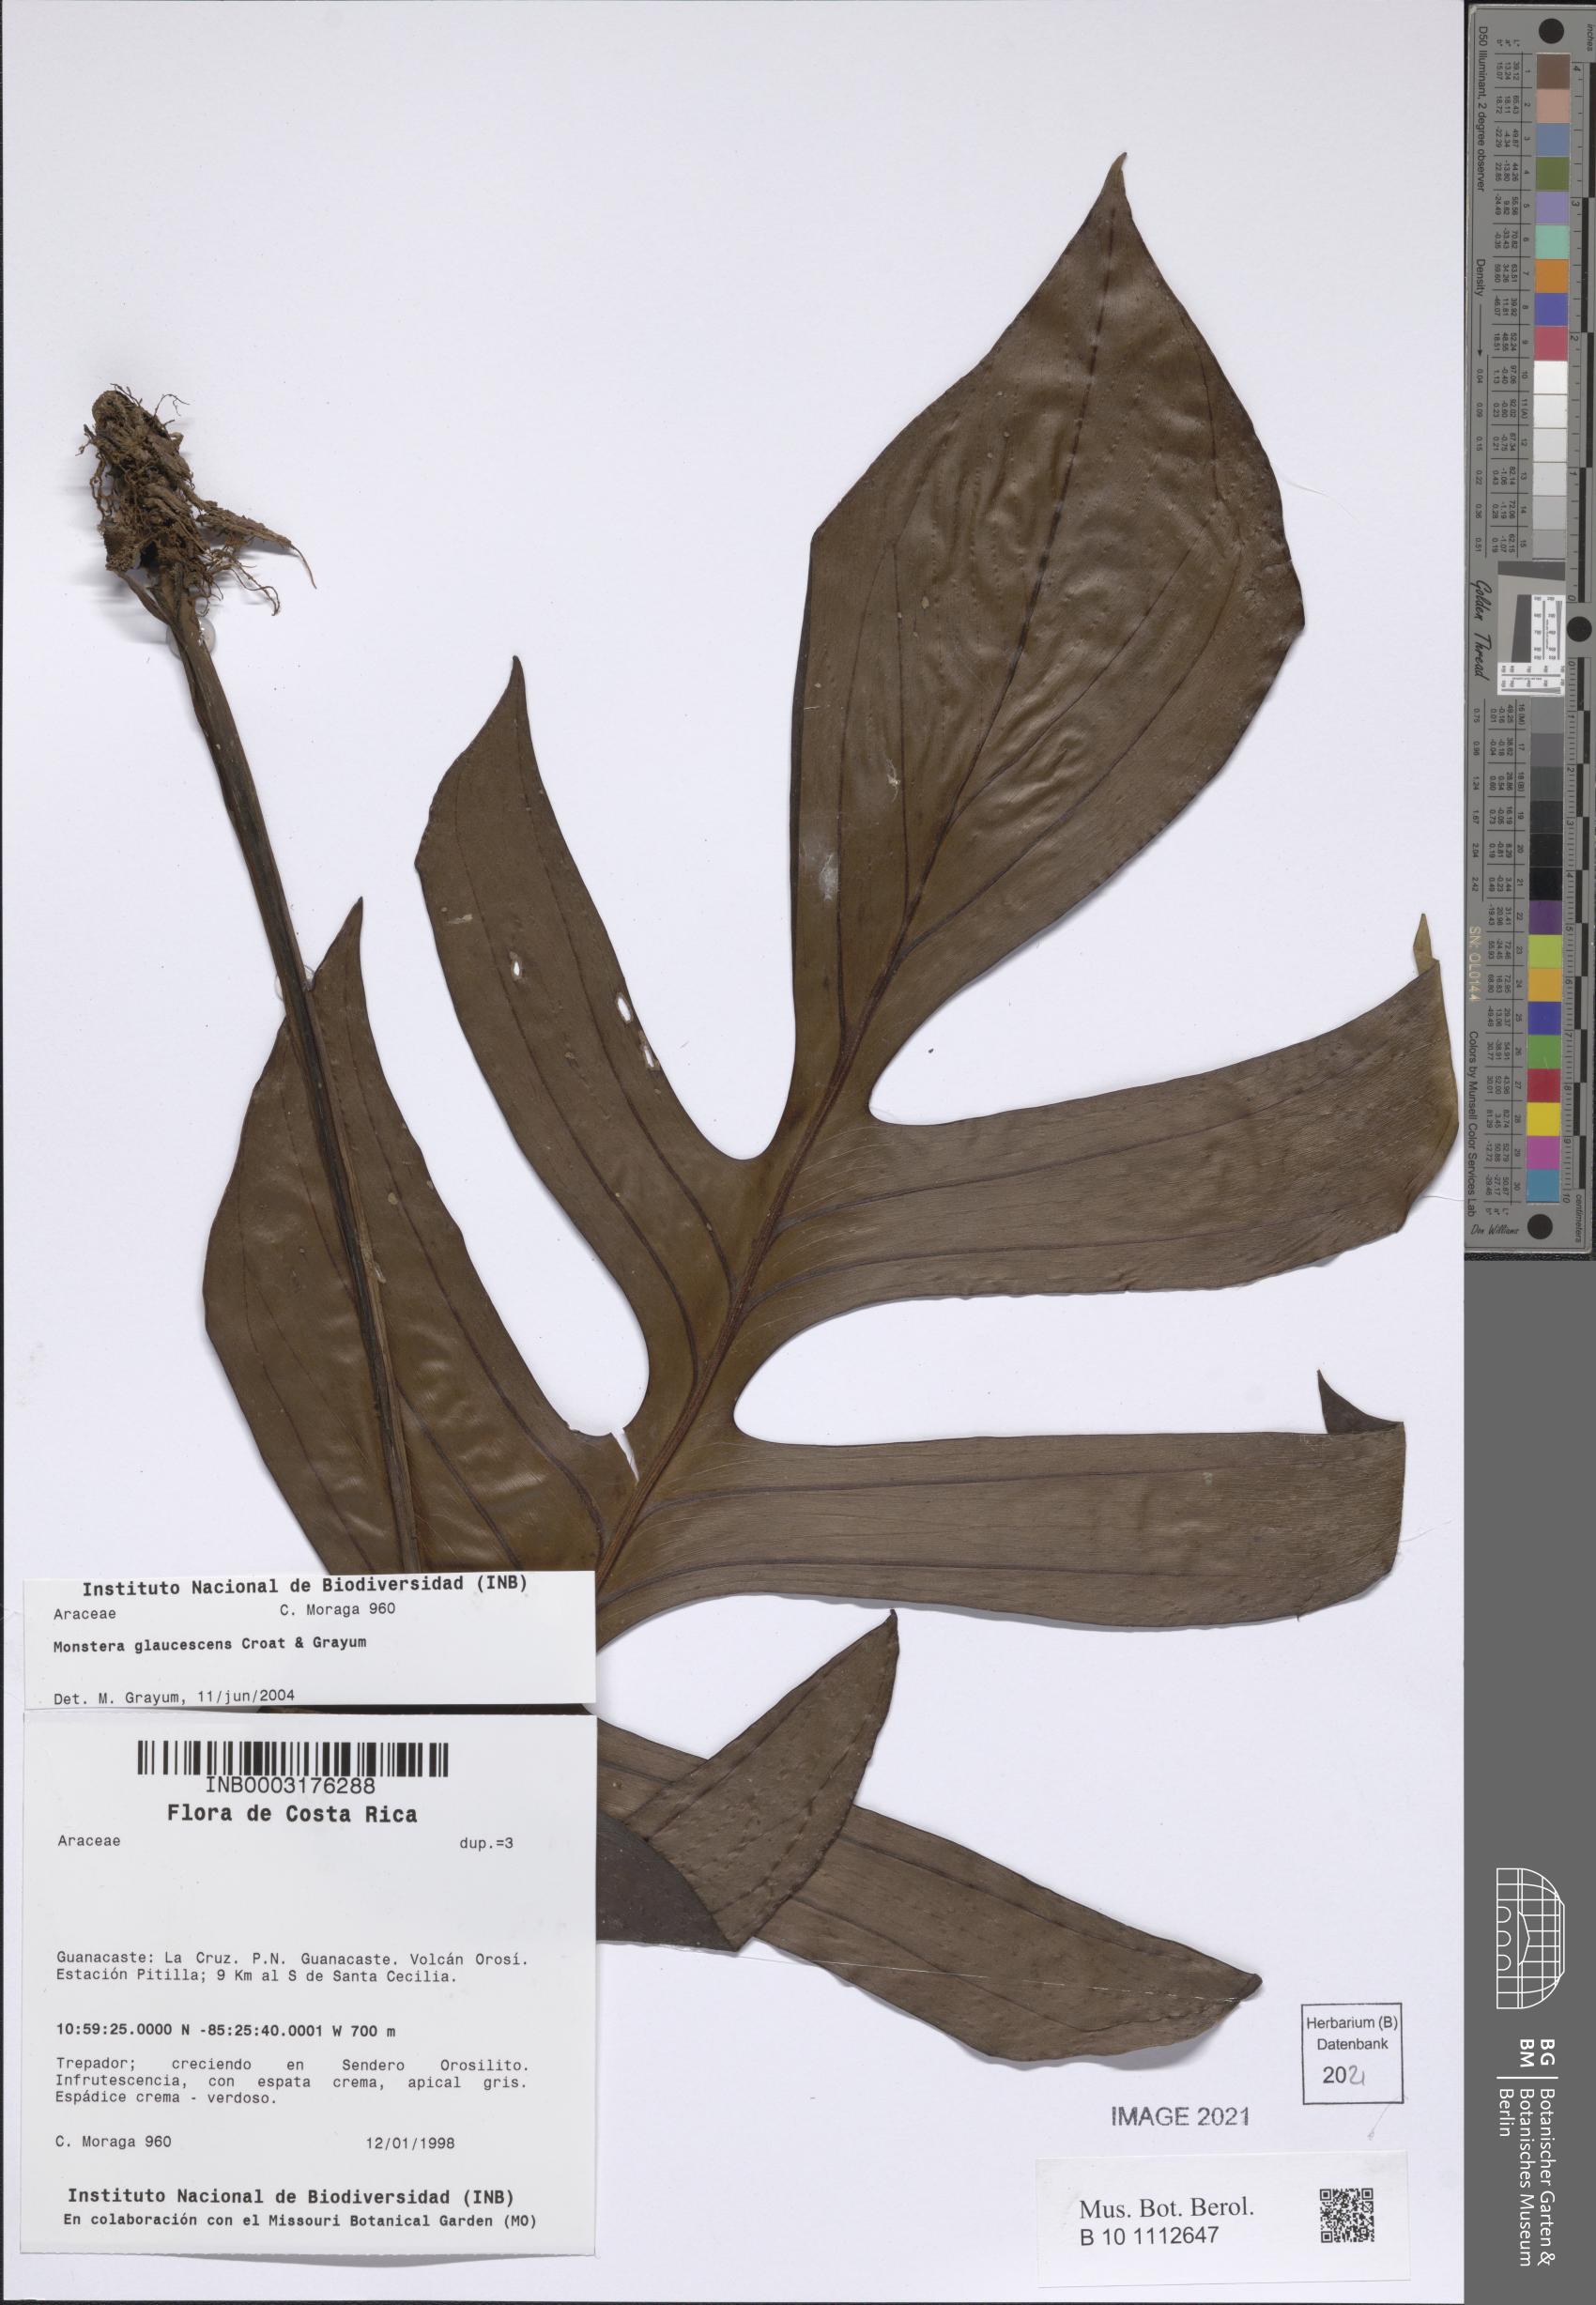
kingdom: Plantae
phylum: Tracheophyta
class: Liliopsida
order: Alismatales
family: Araceae
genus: Monstera
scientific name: Monstera glaucescens
